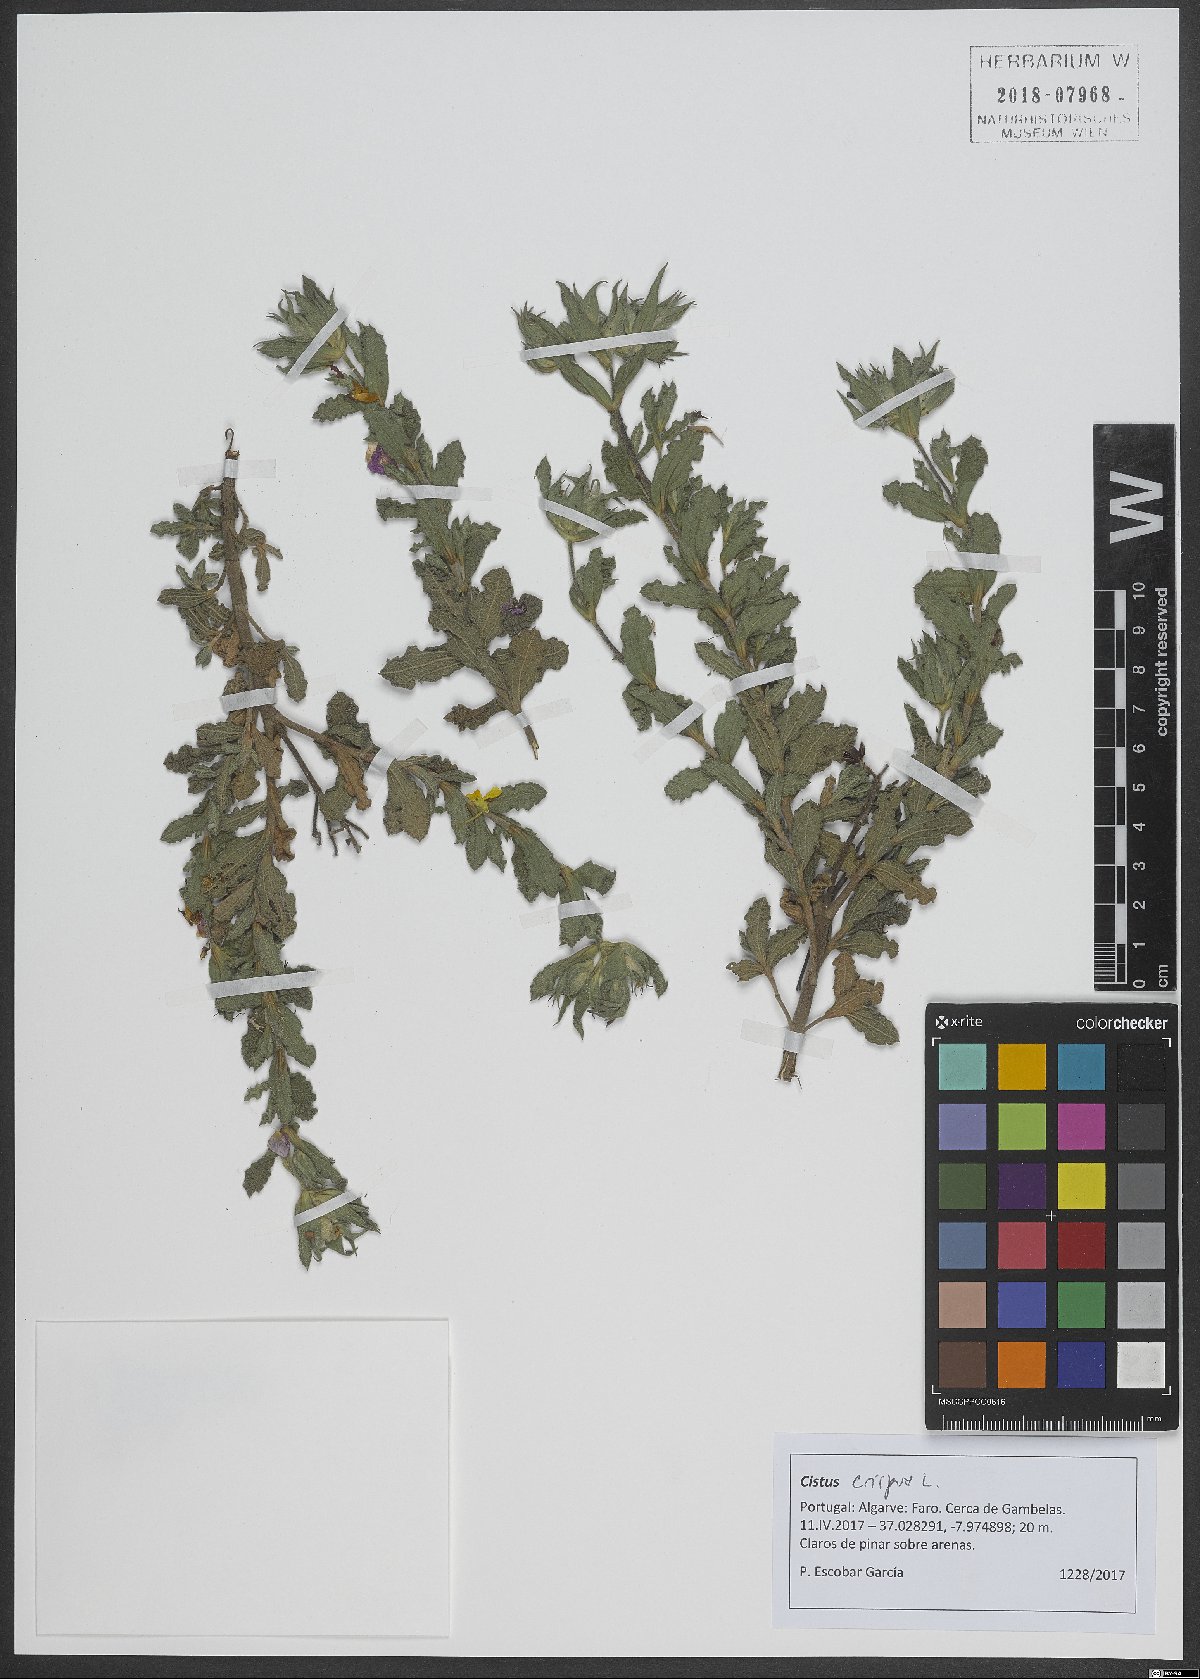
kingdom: Plantae
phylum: Tracheophyta
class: Magnoliopsida
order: Malvales
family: Cistaceae
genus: Cistus
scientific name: Cistus crispus
